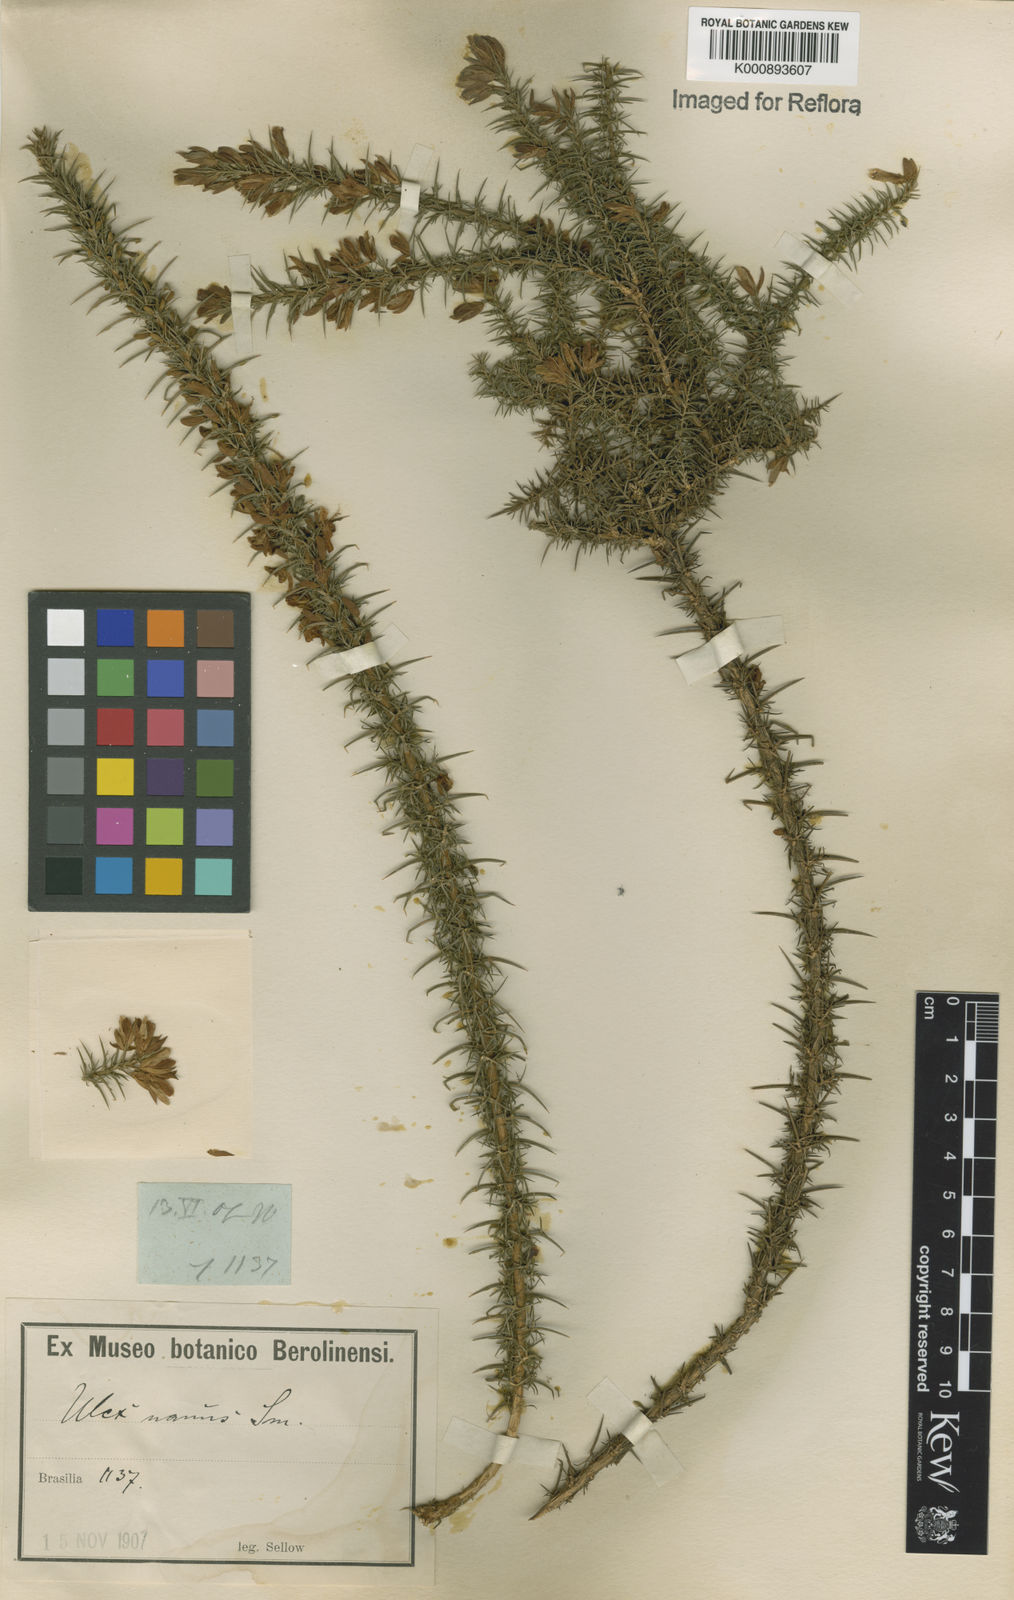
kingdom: Plantae
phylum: Tracheophyta
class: Magnoliopsida
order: Fabales
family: Fabaceae
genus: Ulex
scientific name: Ulex
